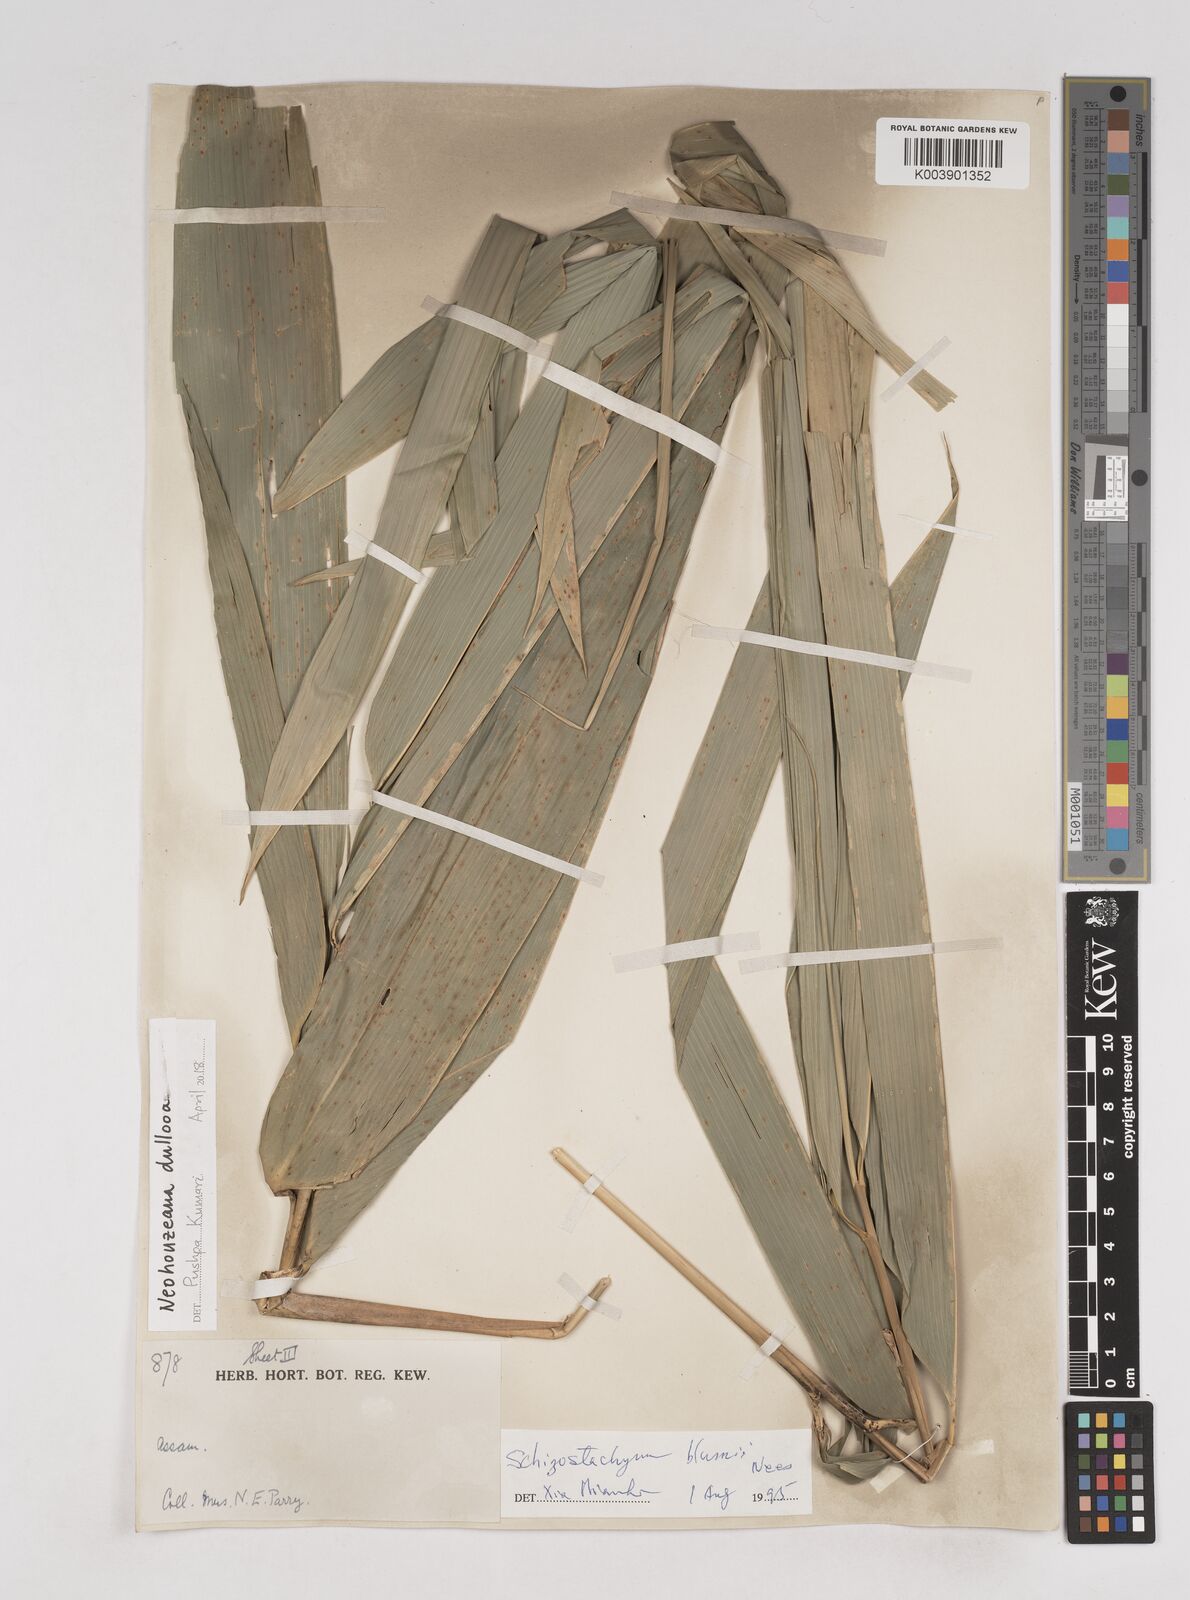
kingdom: Plantae
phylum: Tracheophyta
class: Liliopsida
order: Poales
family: Poaceae
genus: Schizostachyum
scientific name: Schizostachyum dullooa
